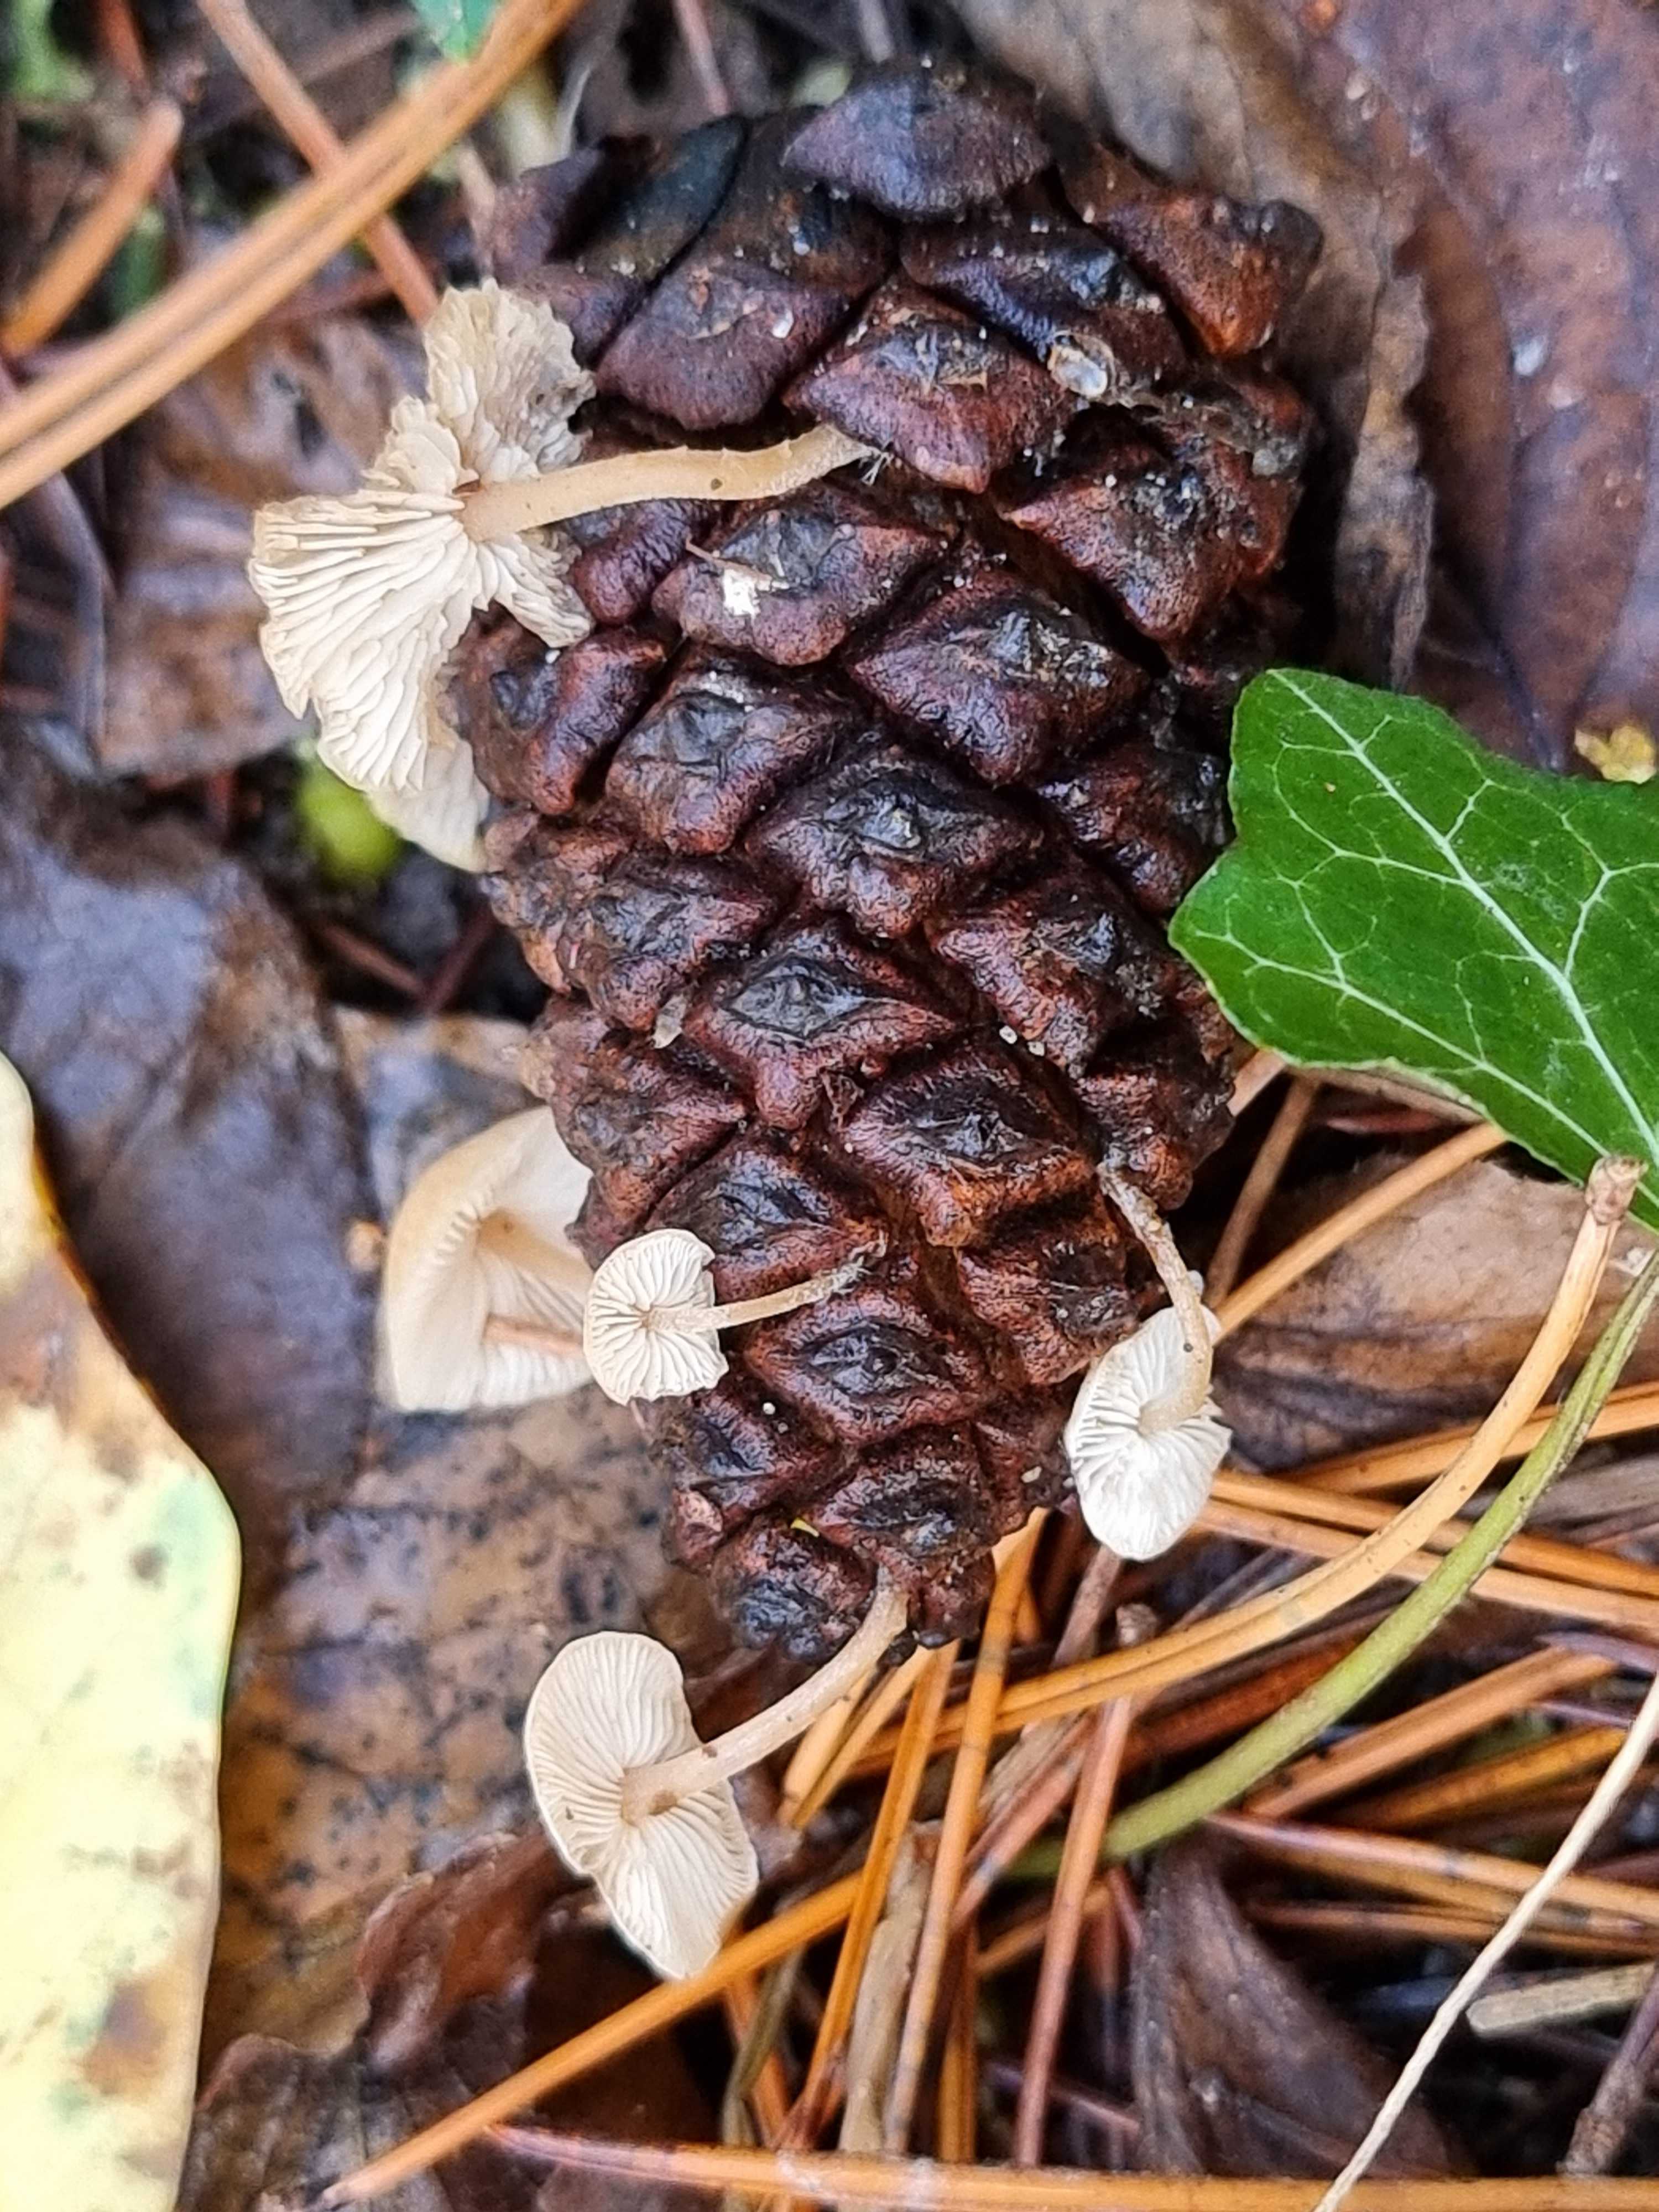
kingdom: Fungi
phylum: Basidiomycota
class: Agaricomycetes
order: Agaricales
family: Marasmiaceae
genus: Baeospora
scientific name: Baeospora myosura
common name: koglebruskhat
